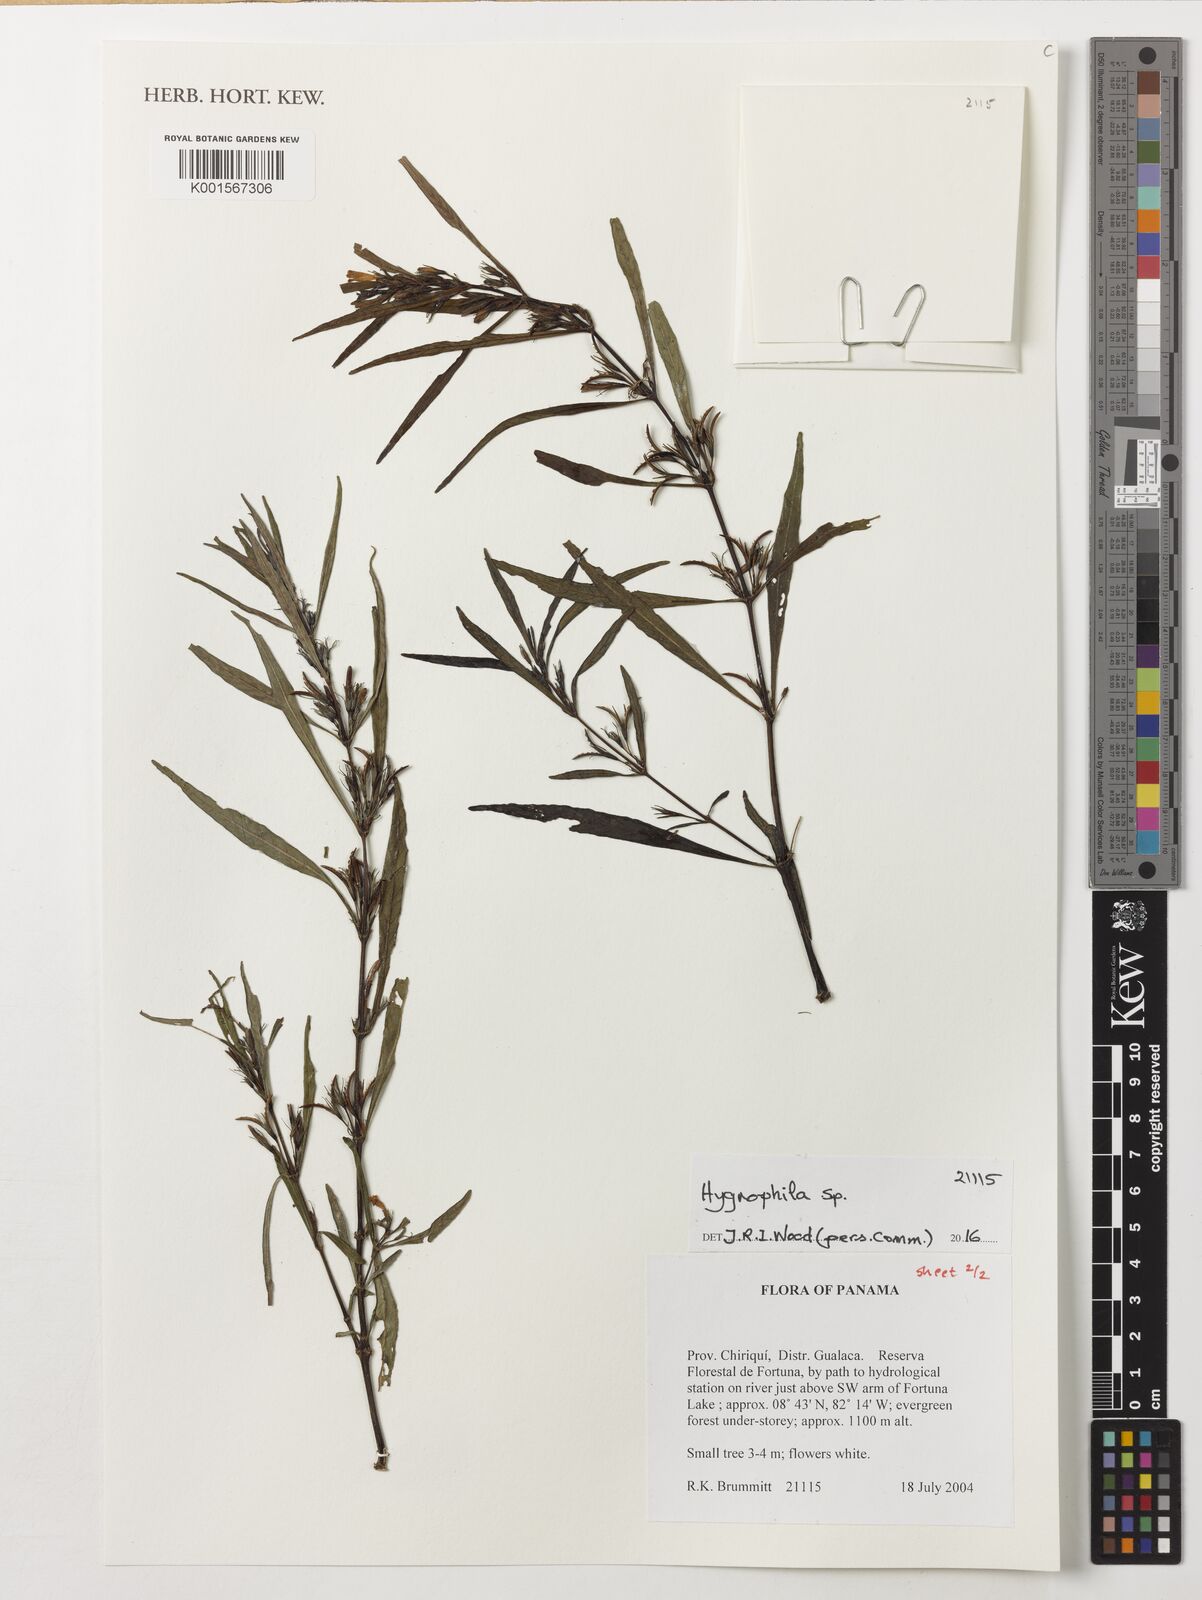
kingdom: Plantae
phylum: Tracheophyta
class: Magnoliopsida
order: Lamiales
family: Acanthaceae
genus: Hygrophila
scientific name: Hygrophila
